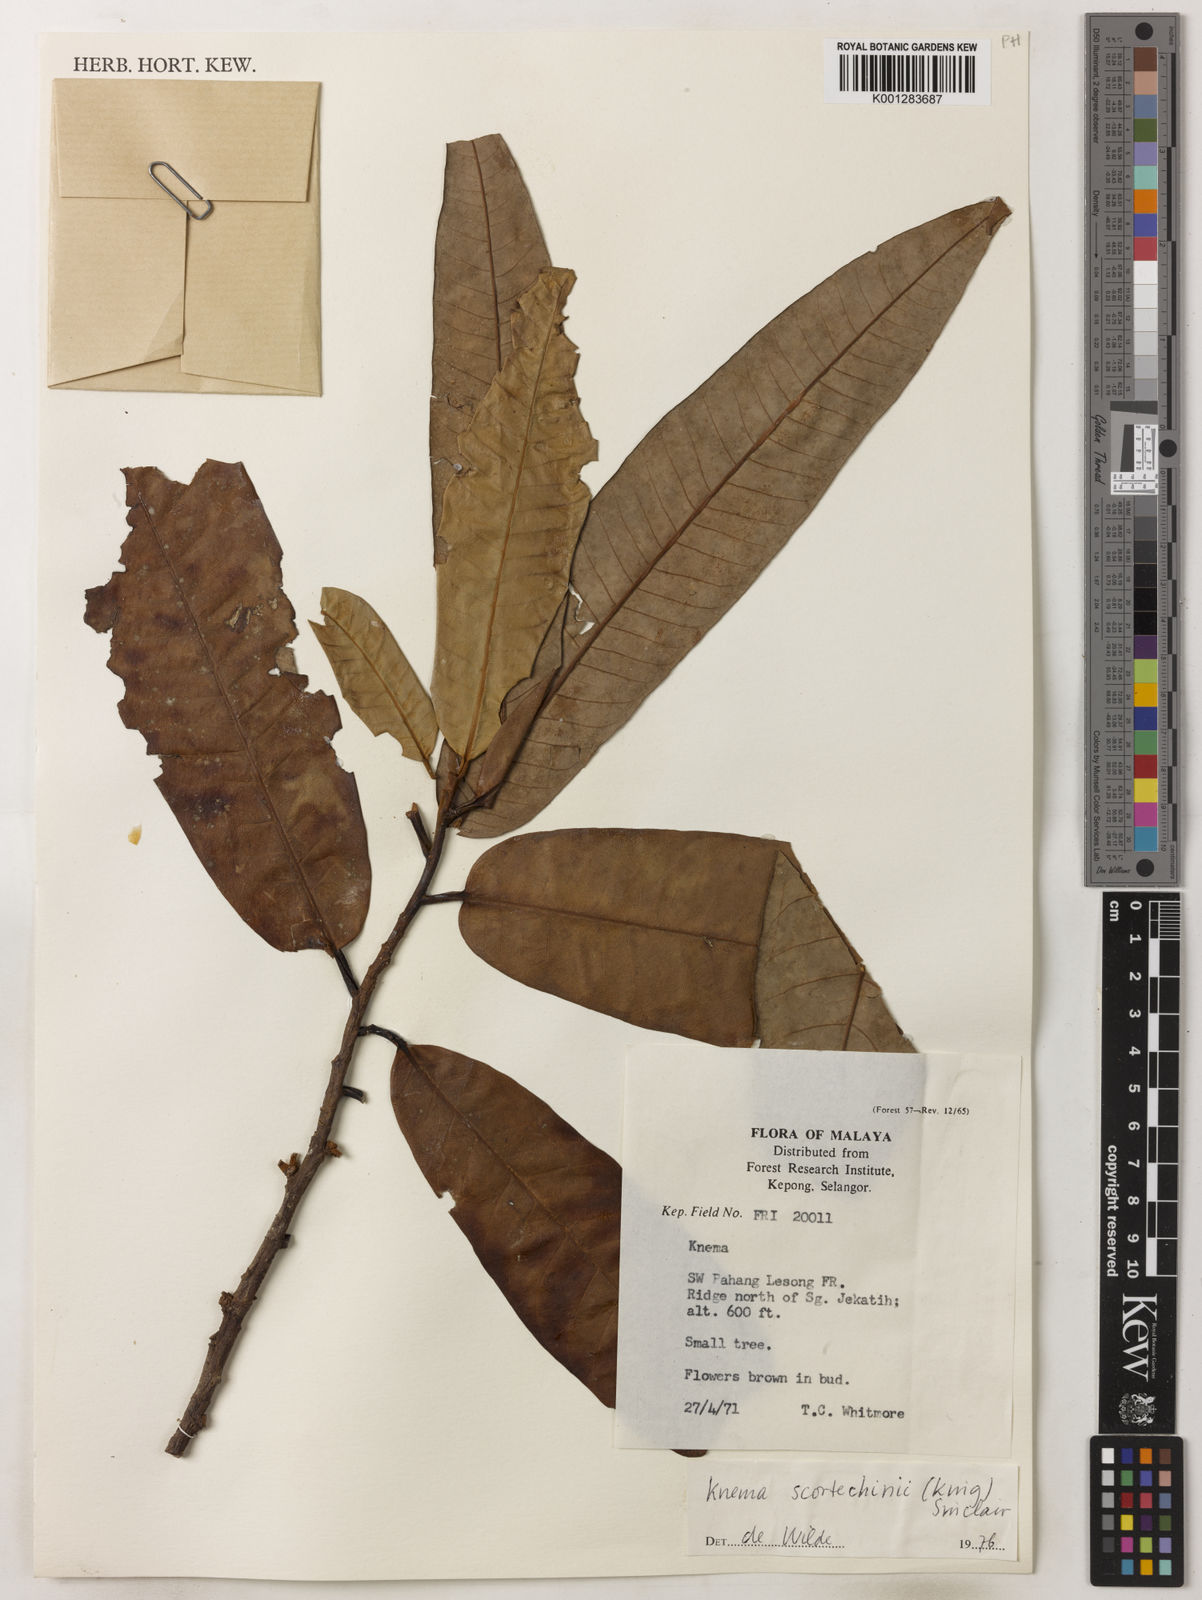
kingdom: Plantae
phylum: Tracheophyta
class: Magnoliopsida
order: Magnoliales
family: Myristicaceae
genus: Knema
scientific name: Knema scortechinii
